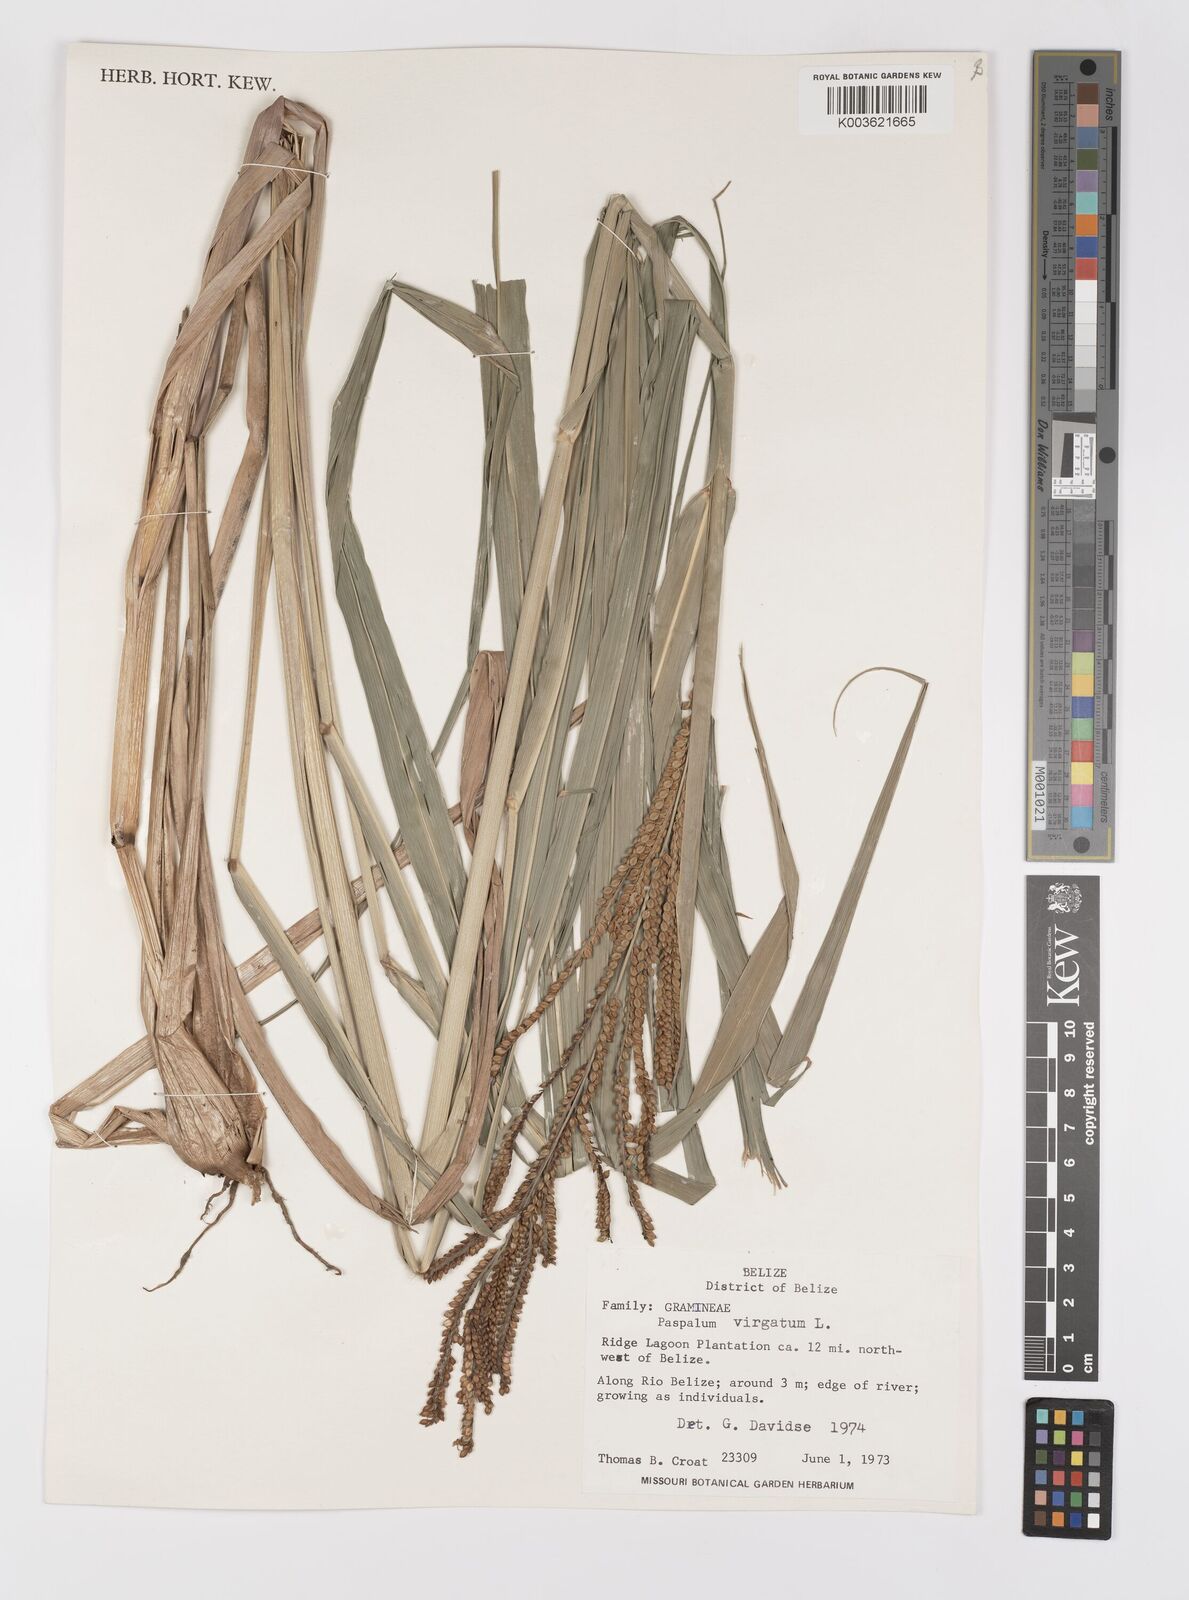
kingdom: Plantae
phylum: Tracheophyta
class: Liliopsida
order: Poales
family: Poaceae
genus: Paspalum
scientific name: Paspalum virgatum
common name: Talquezal
